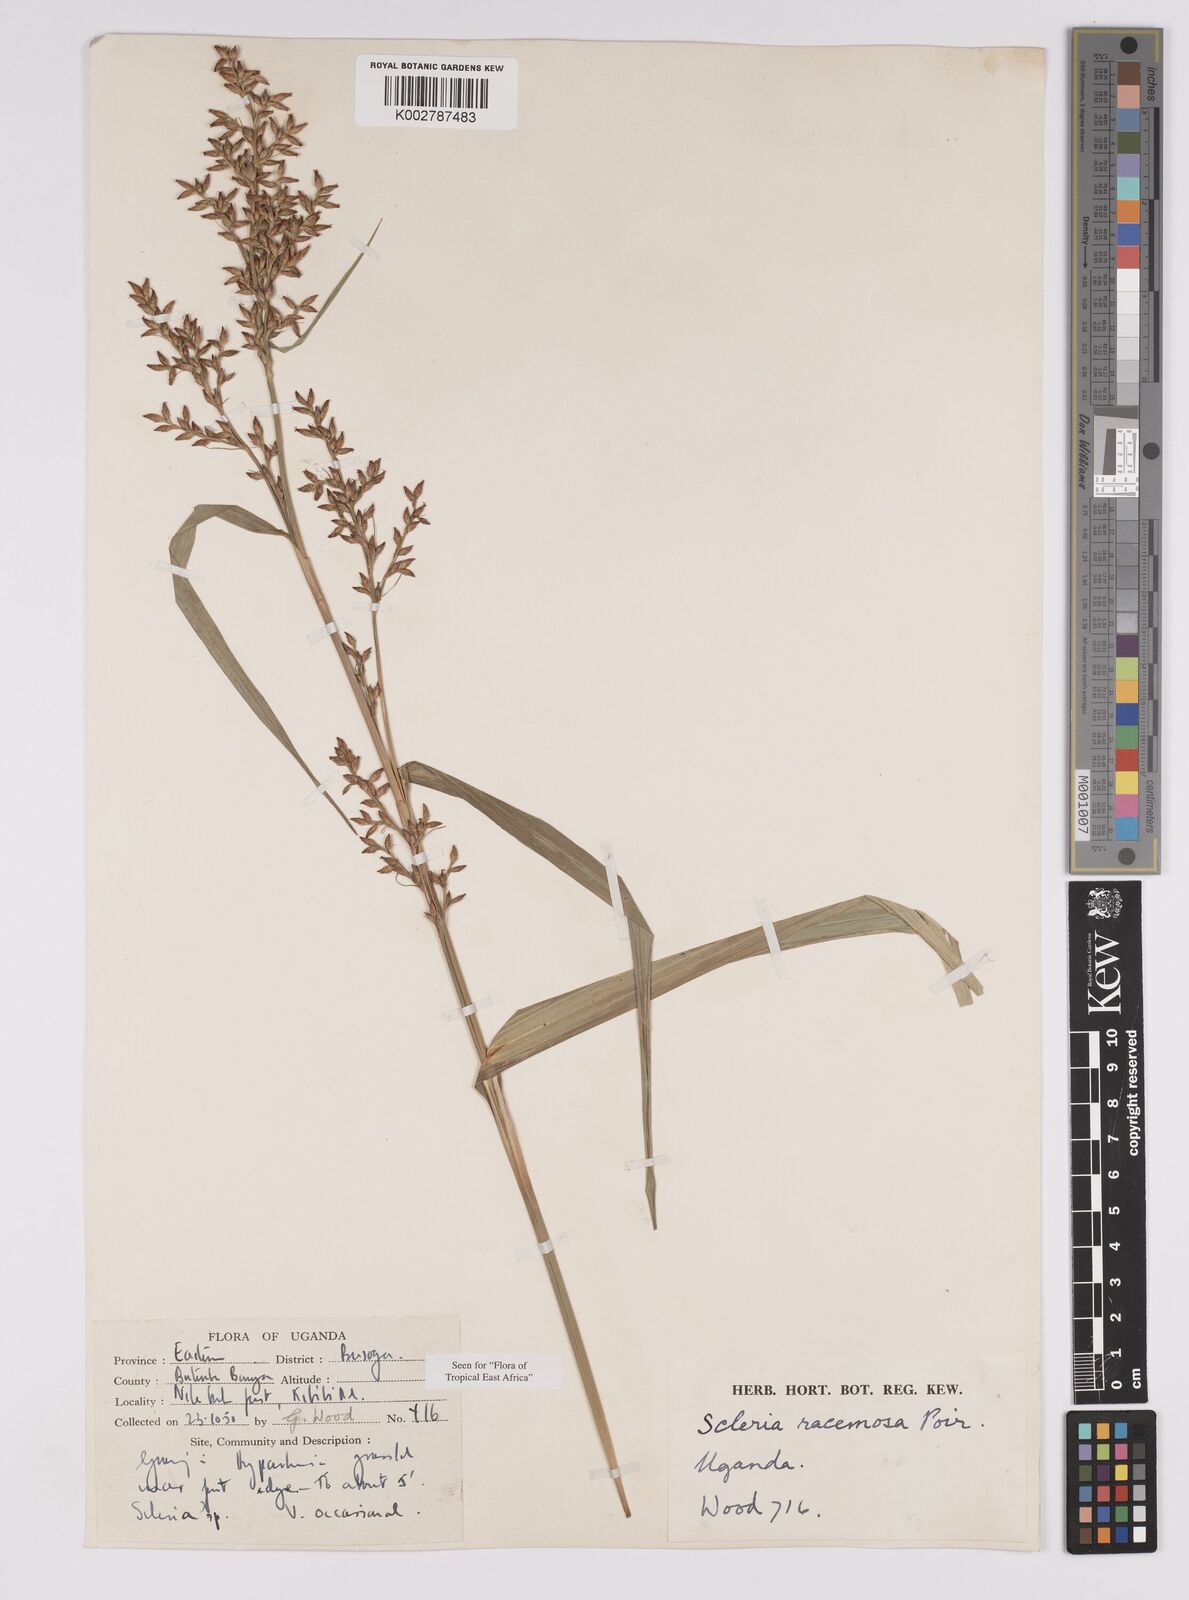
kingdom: Plantae
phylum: Tracheophyta
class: Liliopsida
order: Poales
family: Cyperaceae
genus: Scleria
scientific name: Scleria racemosa
